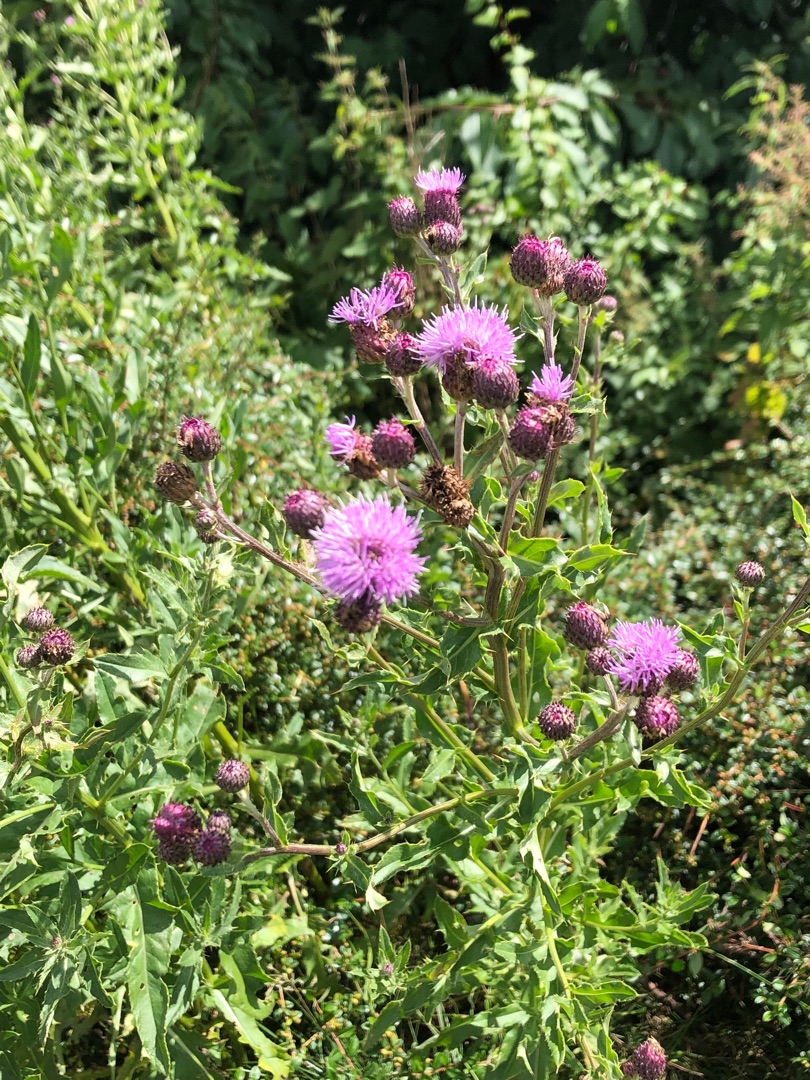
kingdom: Plantae
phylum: Tracheophyta
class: Magnoliopsida
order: Asterales
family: Asteraceae
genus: Cirsium
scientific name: Cirsium arvense
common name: Ager-tidsel
